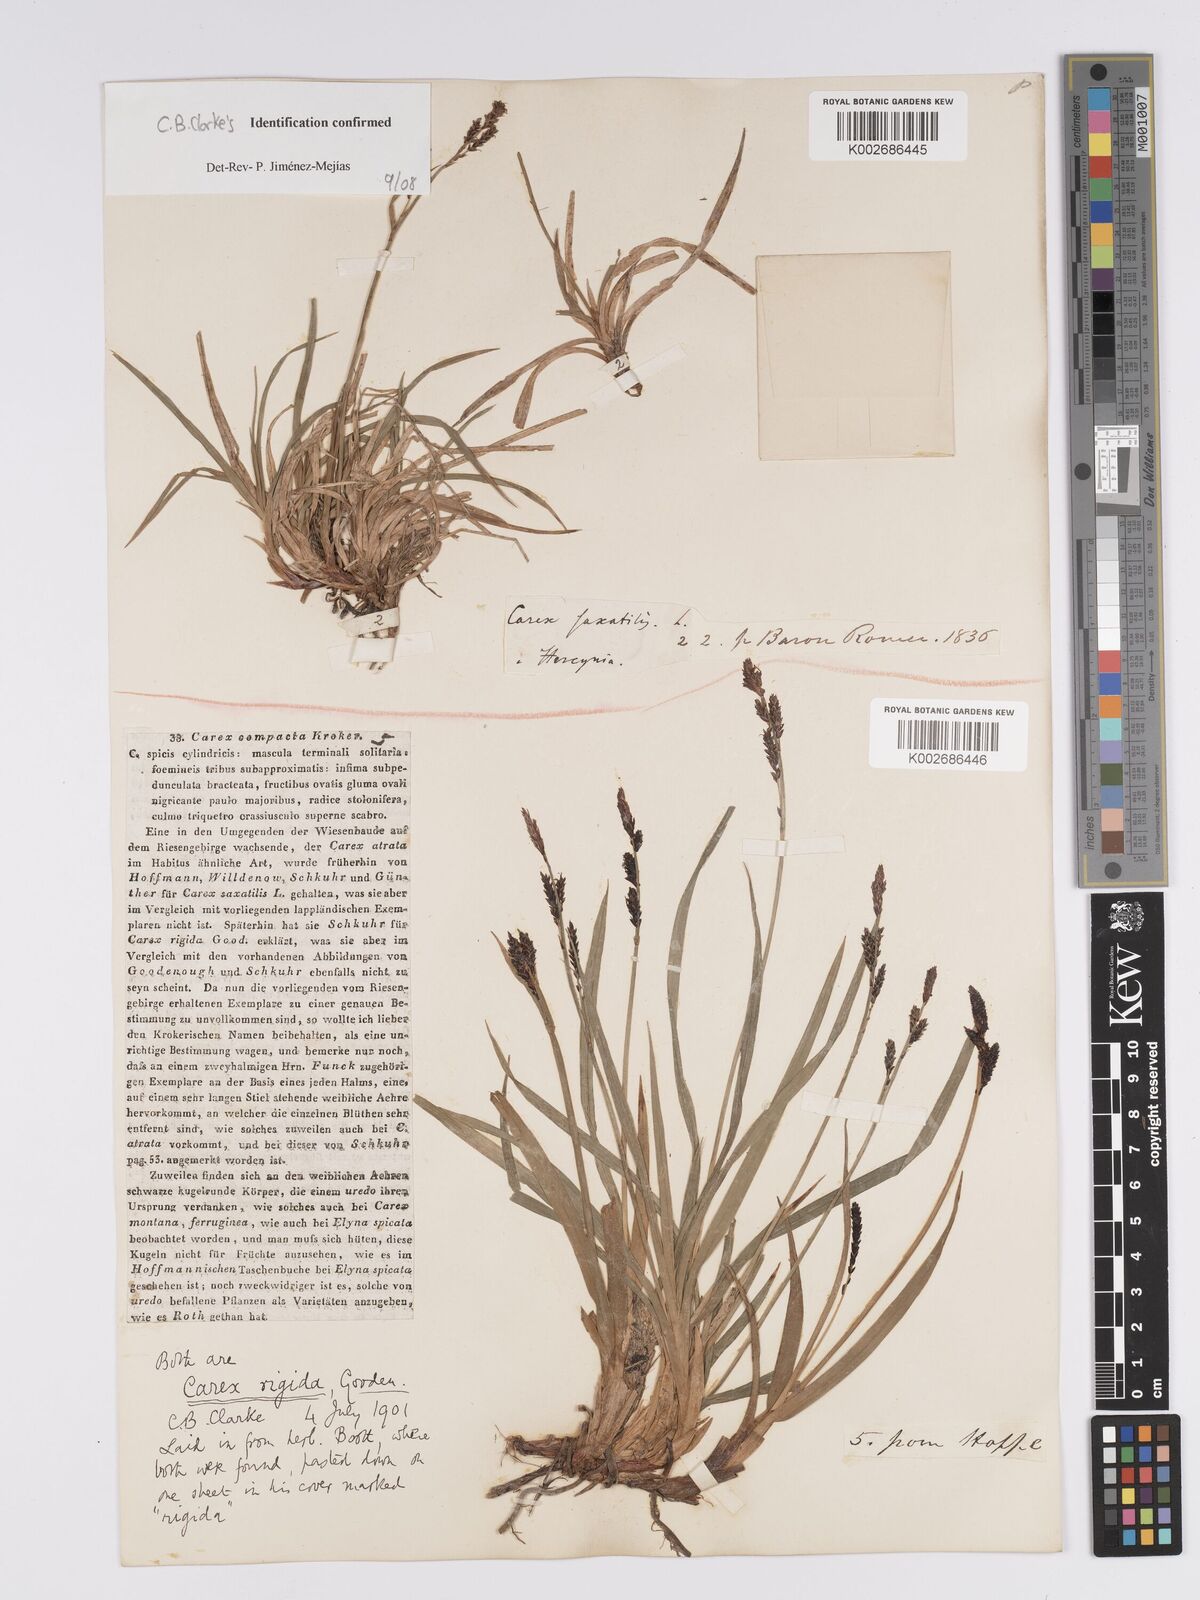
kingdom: Plantae
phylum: Tracheophyta
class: Liliopsida
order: Poales
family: Cyperaceae
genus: Carex
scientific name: Carex bigelowii
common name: Stiff sedge
